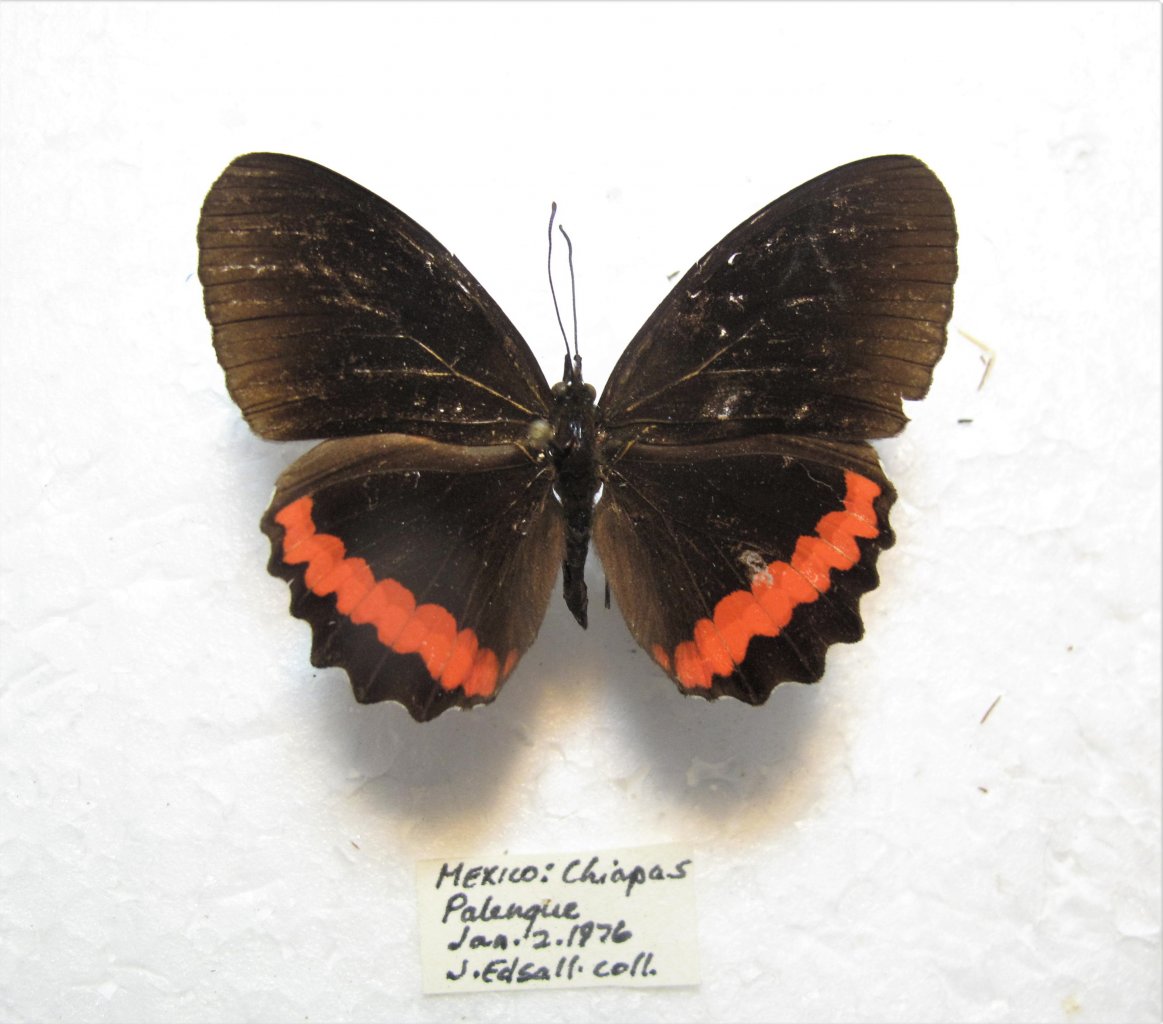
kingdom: Animalia
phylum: Arthropoda
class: Insecta
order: Lepidoptera
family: Sesiidae
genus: Sesia
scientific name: Sesia Biblis hyperia
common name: Red Rim
